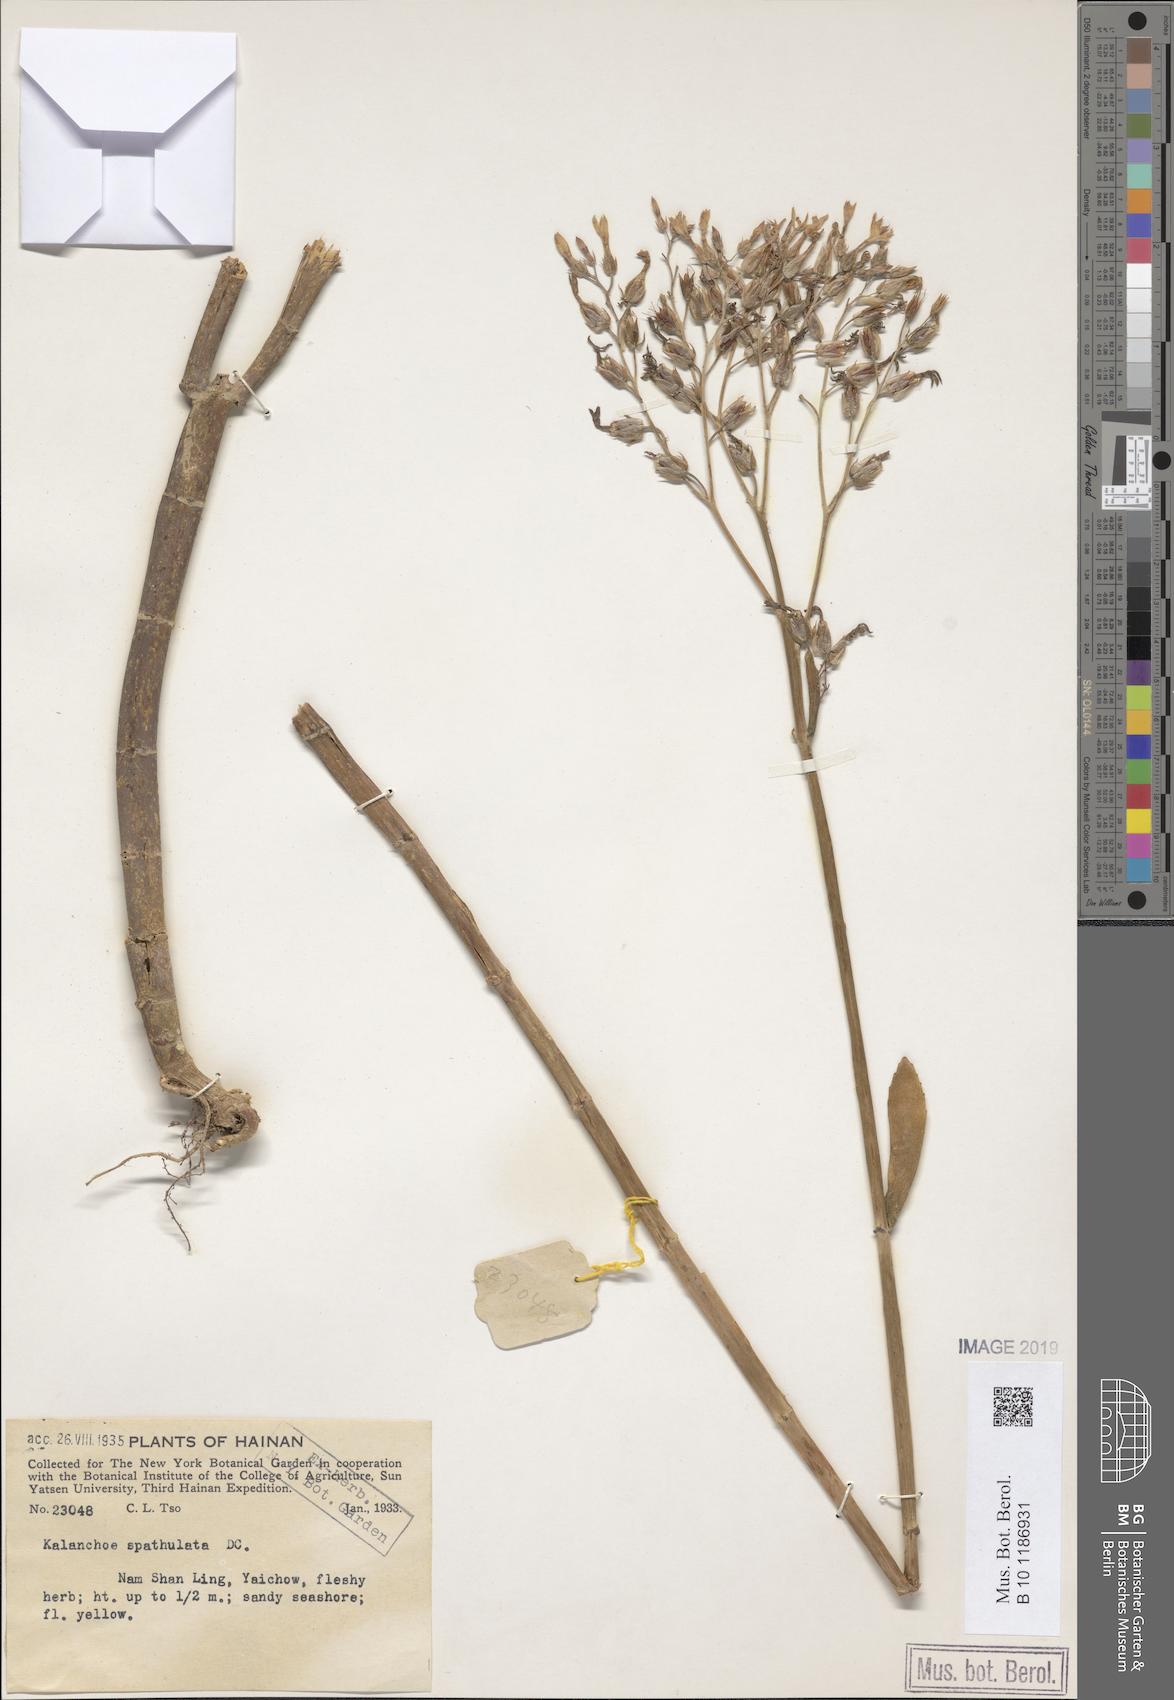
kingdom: Plantae
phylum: Tracheophyta
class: Magnoliopsida
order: Saxifragales
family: Crassulaceae
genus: Kalanchoe
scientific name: Kalanchoe integra
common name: Neverdie
